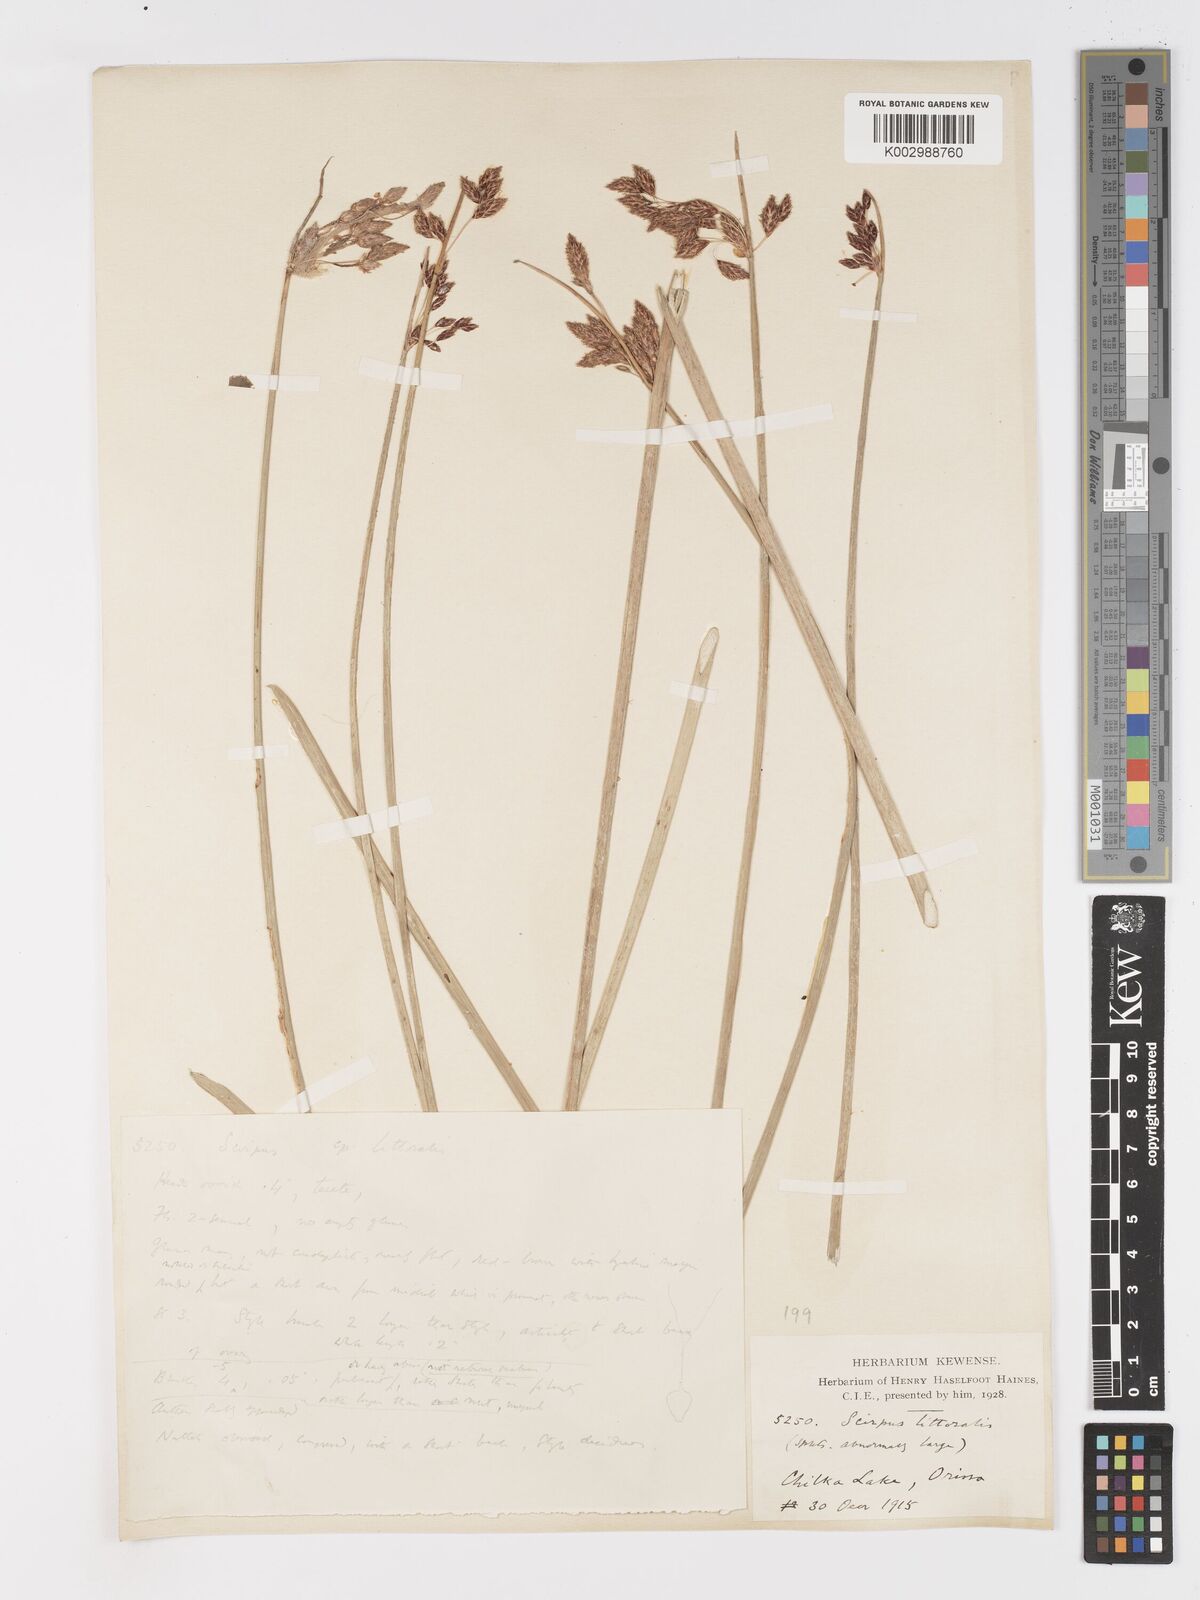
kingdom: Plantae
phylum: Tracheophyta
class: Liliopsida
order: Poales
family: Cyperaceae
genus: Schoenoplectus
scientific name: Schoenoplectus litoralis
